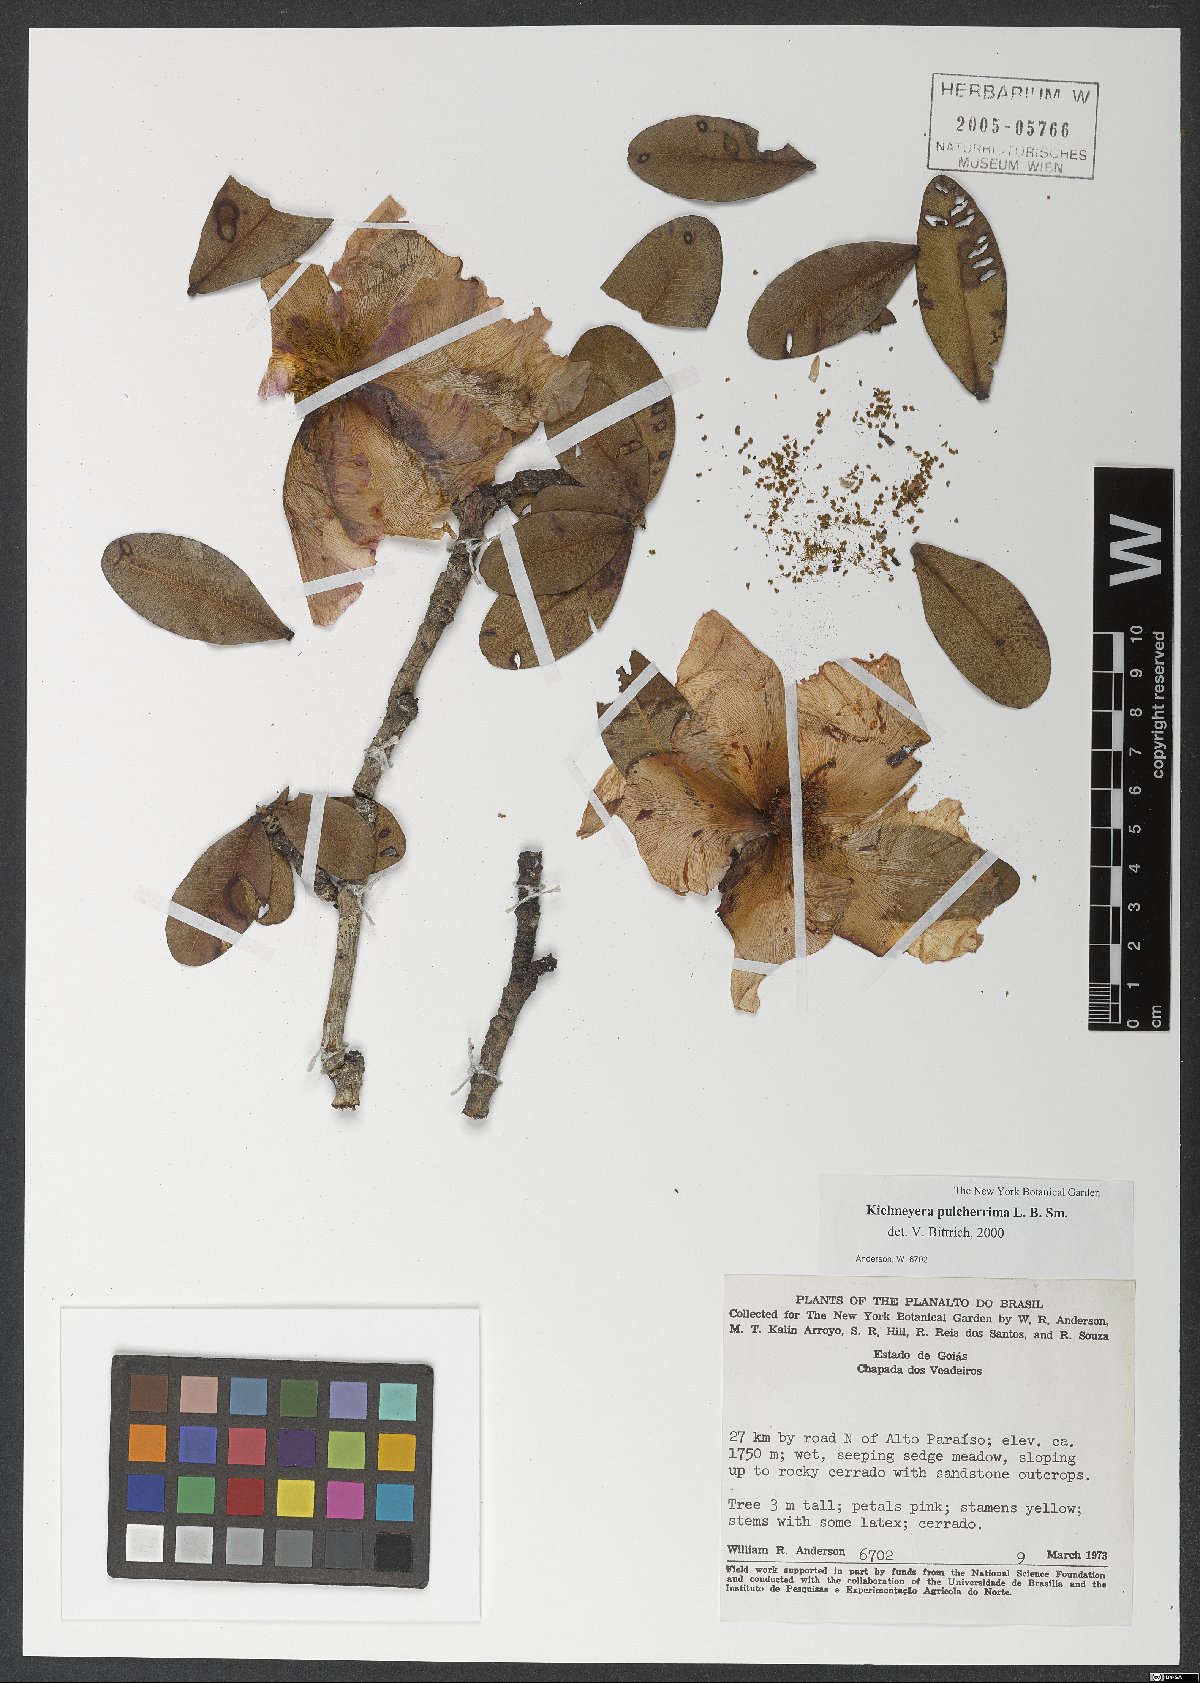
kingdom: Plantae
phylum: Tracheophyta
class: Magnoliopsida
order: Malpighiales
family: Calophyllaceae
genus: Kielmeyera
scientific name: Kielmeyera pulcherrima
